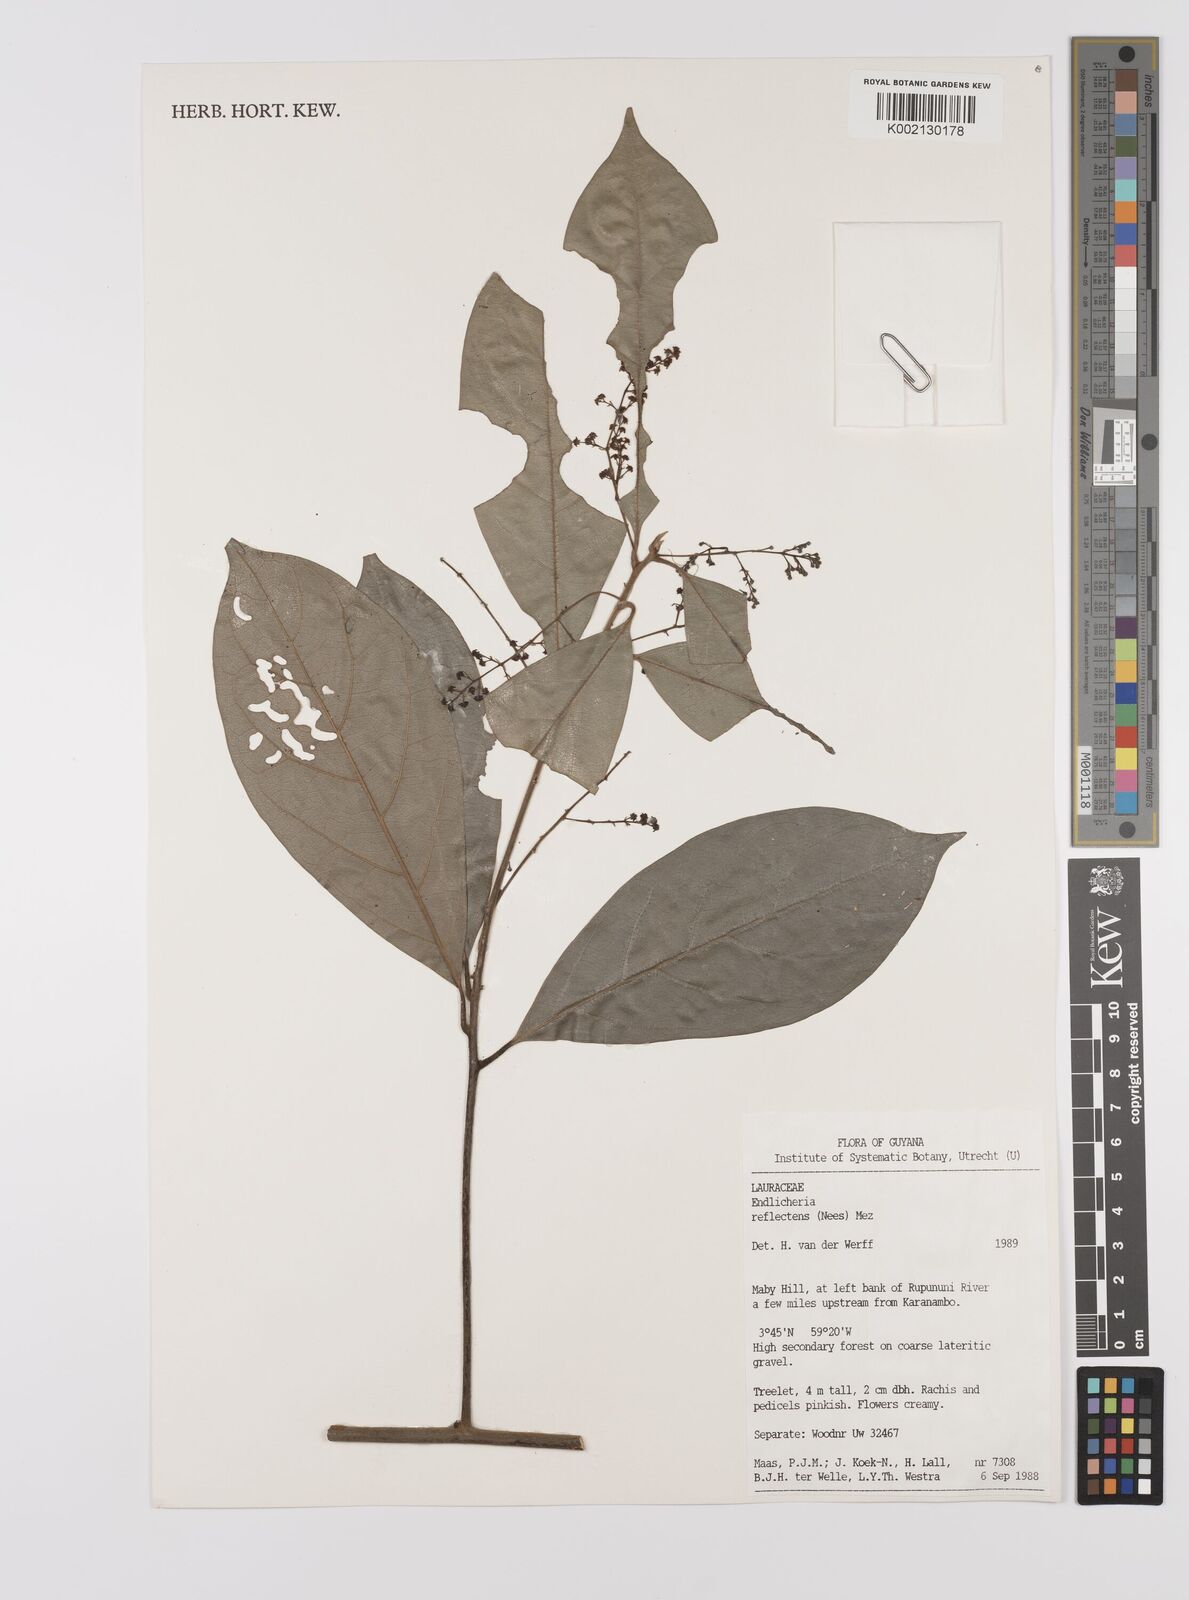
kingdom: Plantae
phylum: Tracheophyta
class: Magnoliopsida
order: Laurales
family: Lauraceae
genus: Endlicheria
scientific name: Endlicheria reflectens
